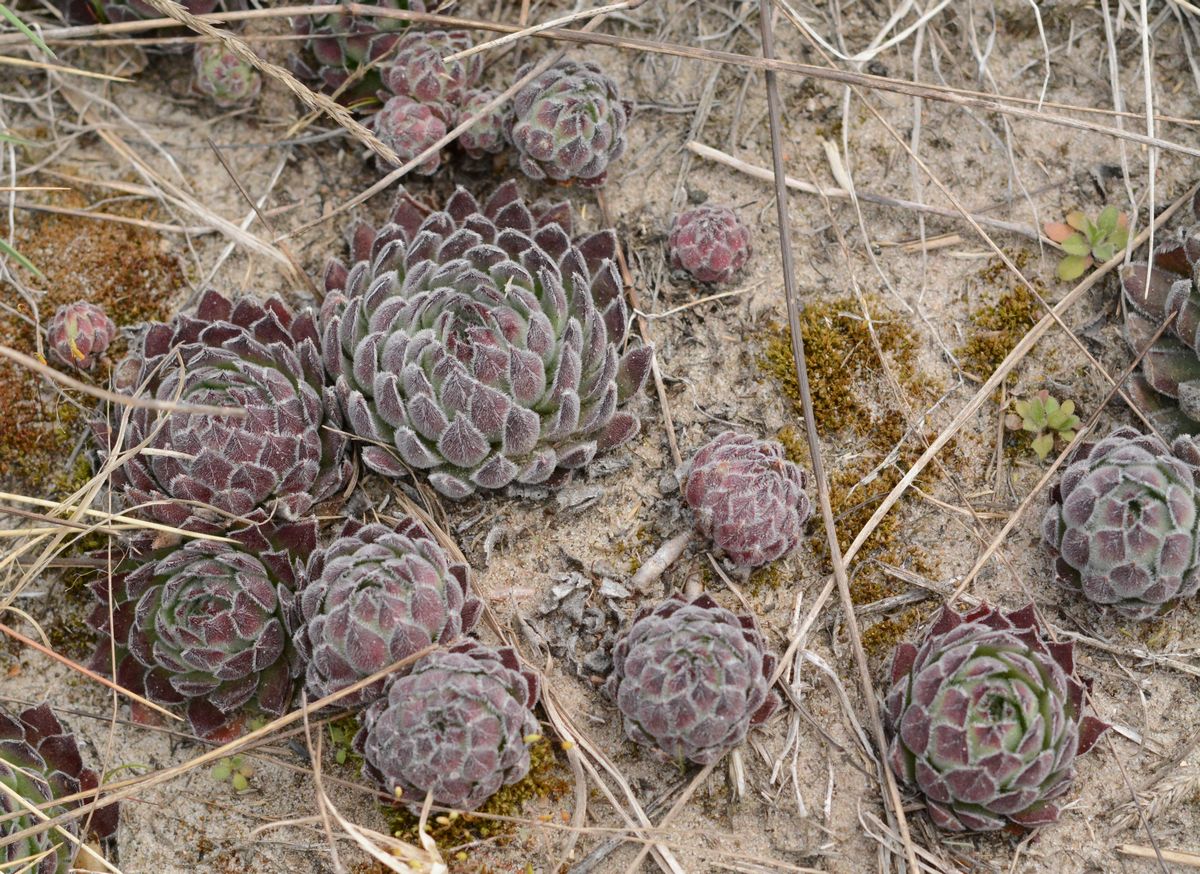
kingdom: Plantae
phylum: Tracheophyta
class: Magnoliopsida
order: Saxifragales
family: Crassulaceae
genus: Sempervivum
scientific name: Sempervivum ruthenicum
